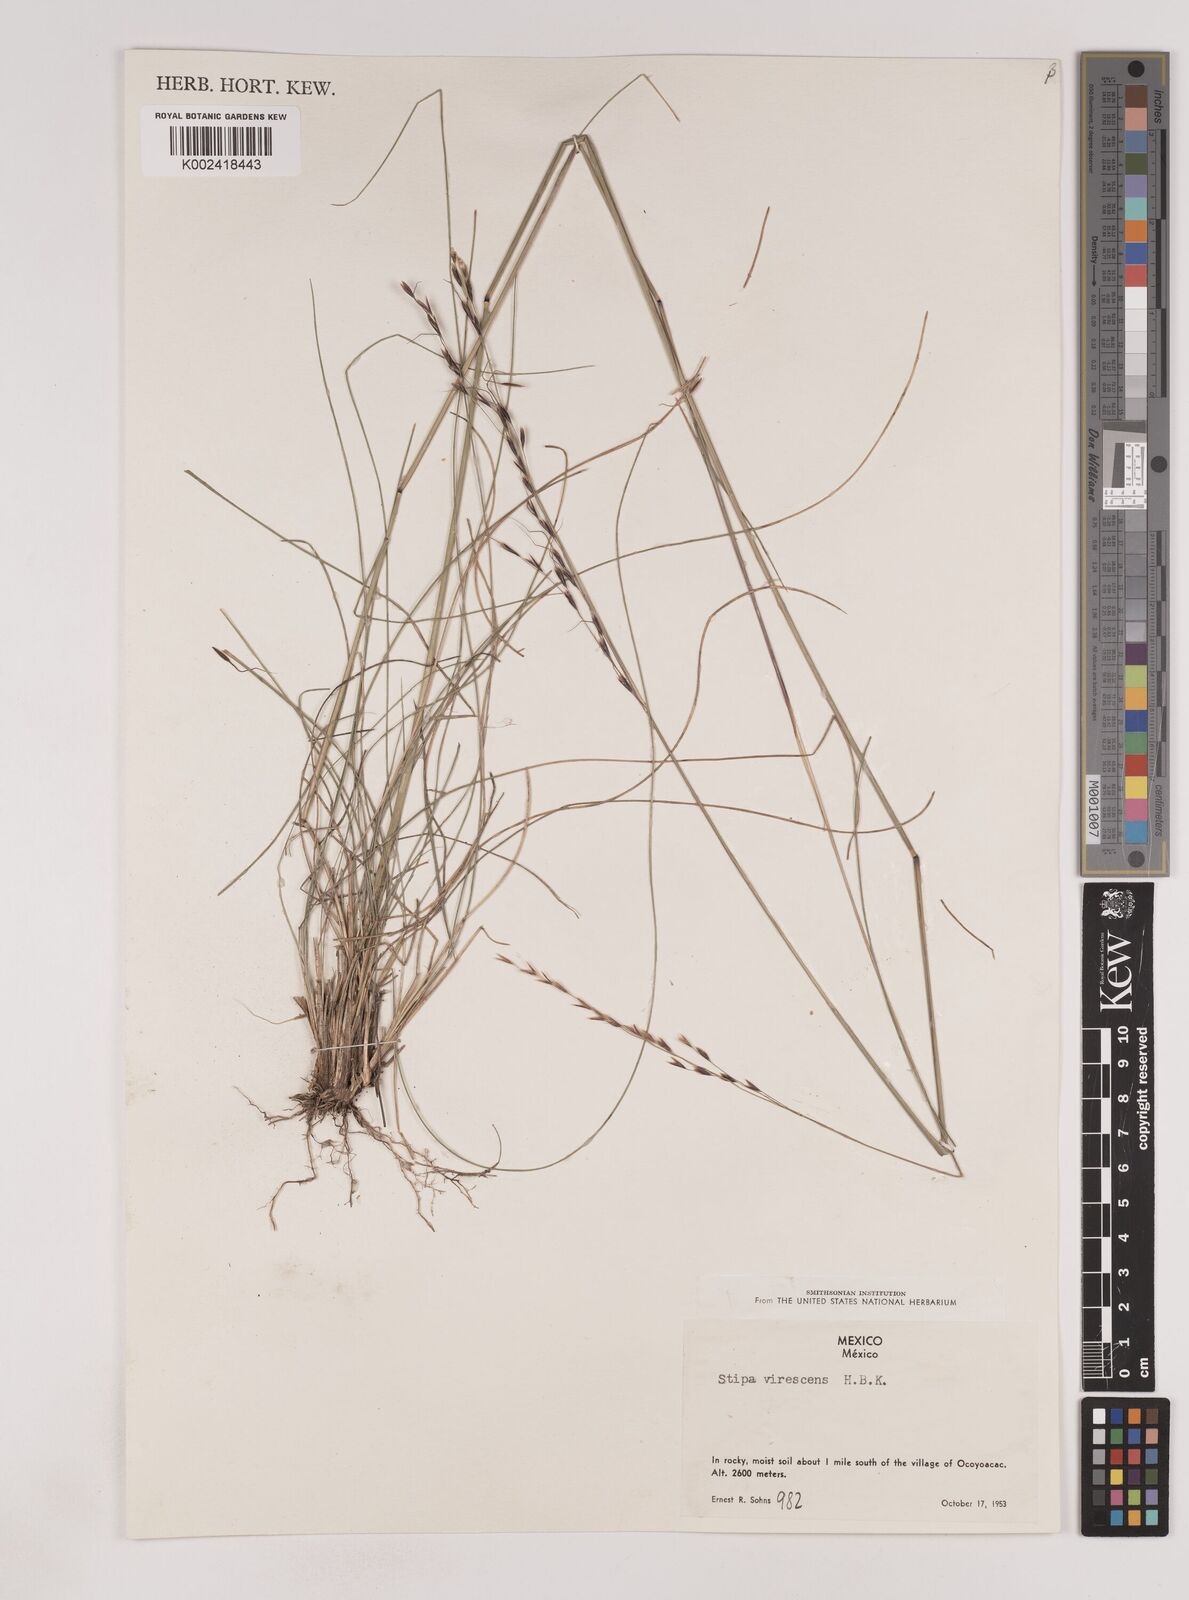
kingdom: Plantae
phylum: Tracheophyta
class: Liliopsida
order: Poales
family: Poaceae
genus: Piptochaetium
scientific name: Piptochaetium virescens
